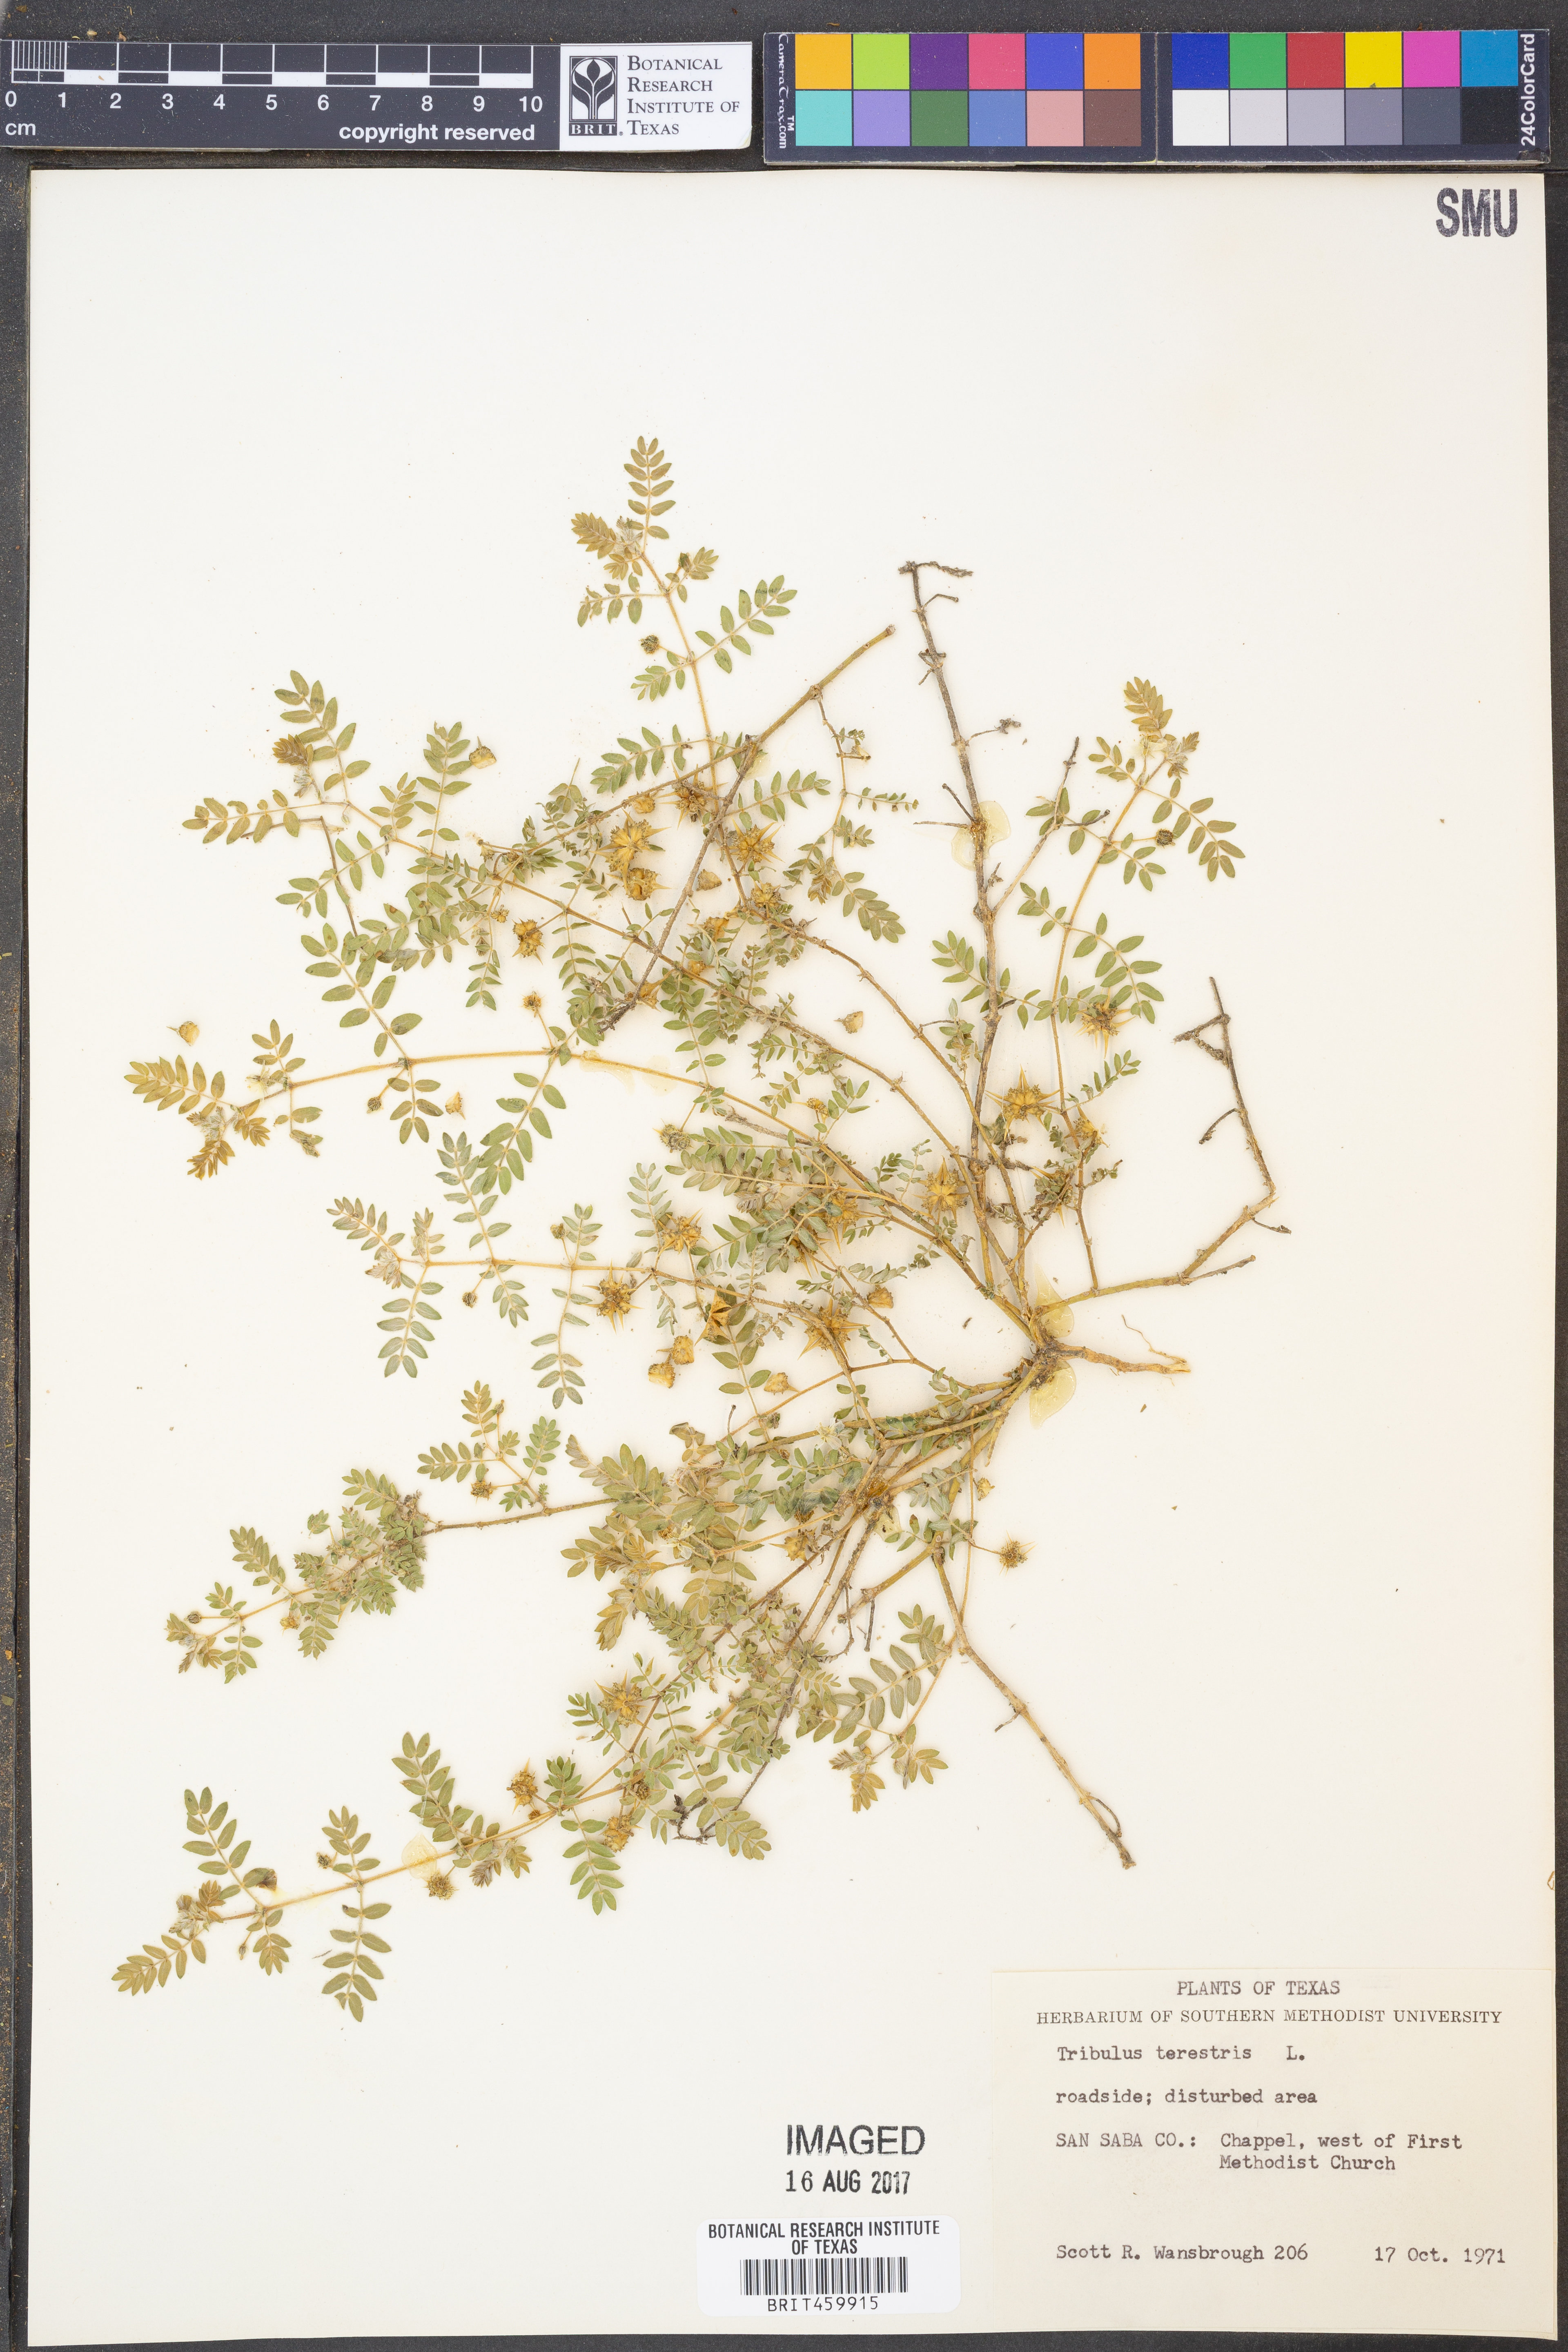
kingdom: Plantae
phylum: Tracheophyta
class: Magnoliopsida
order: Zygophyllales
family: Zygophyllaceae
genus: Tribulus
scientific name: Tribulus terrestris
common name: Puncturevine
